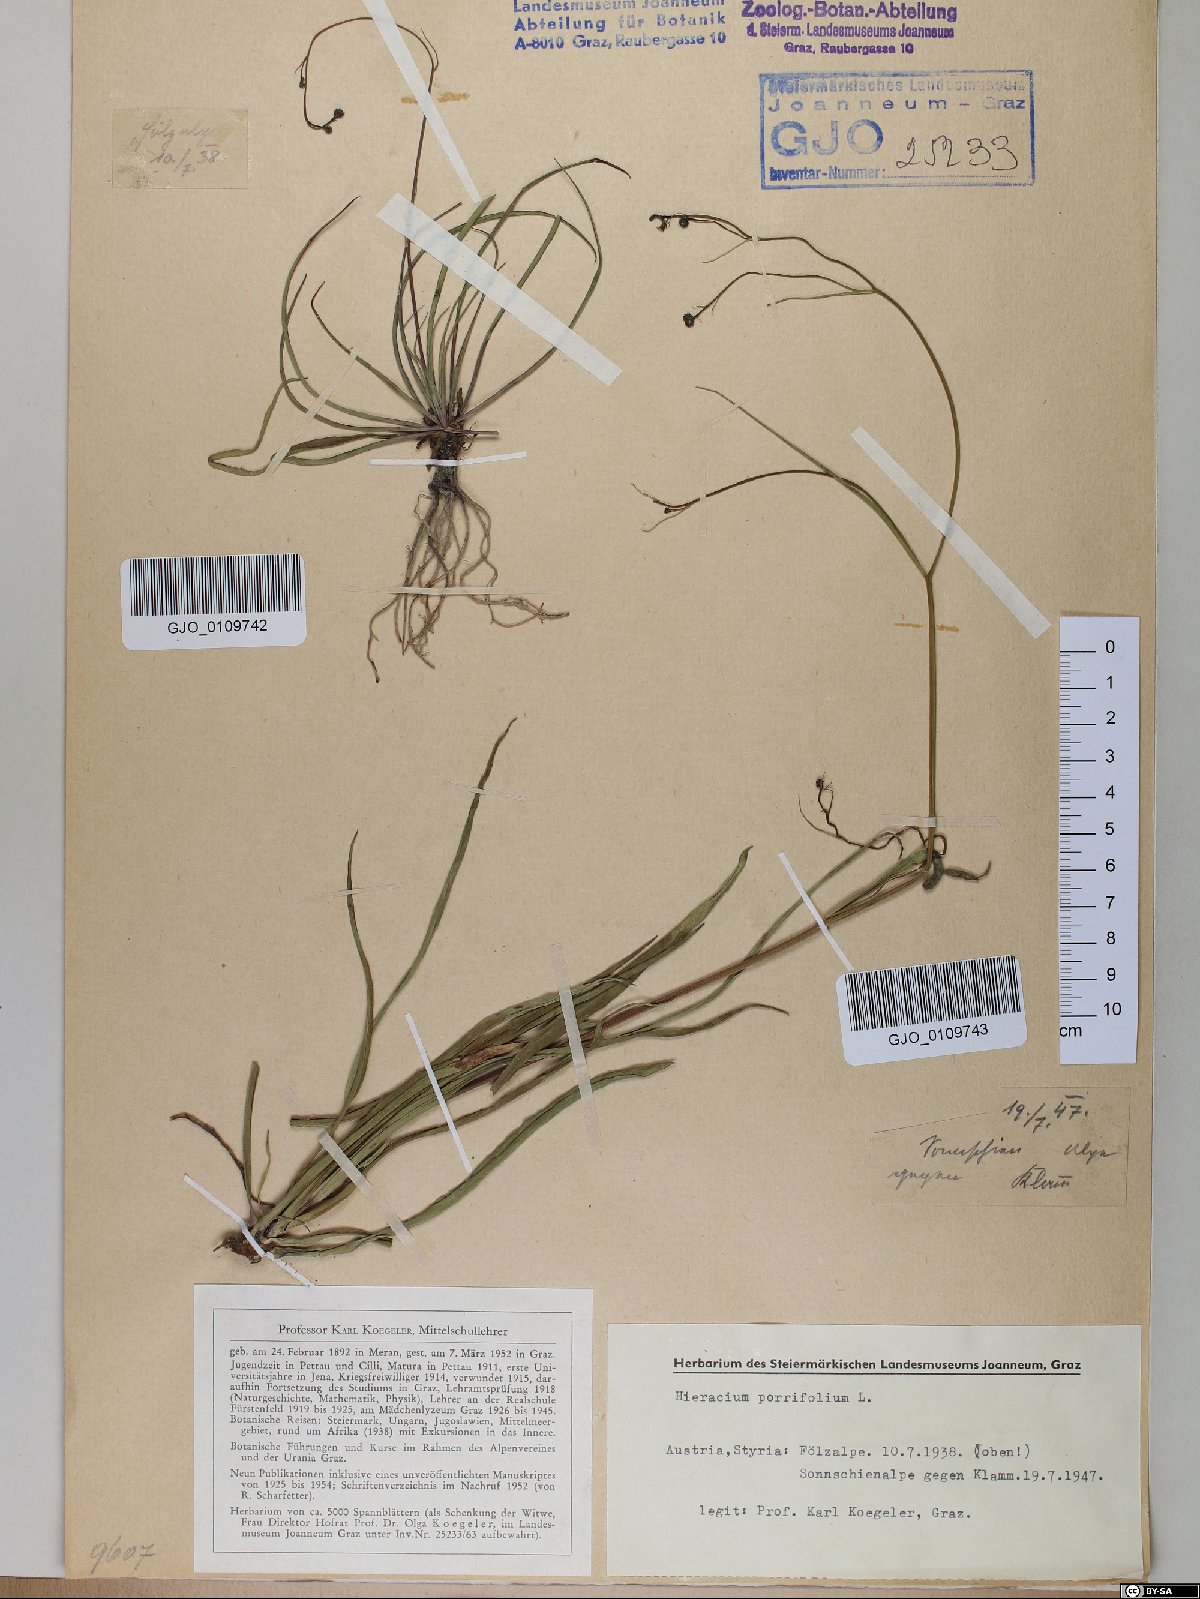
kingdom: Plantae
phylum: Tracheophyta
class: Magnoliopsida
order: Asterales
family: Asteraceae
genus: Hieracium
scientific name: Hieracium porrifolium
